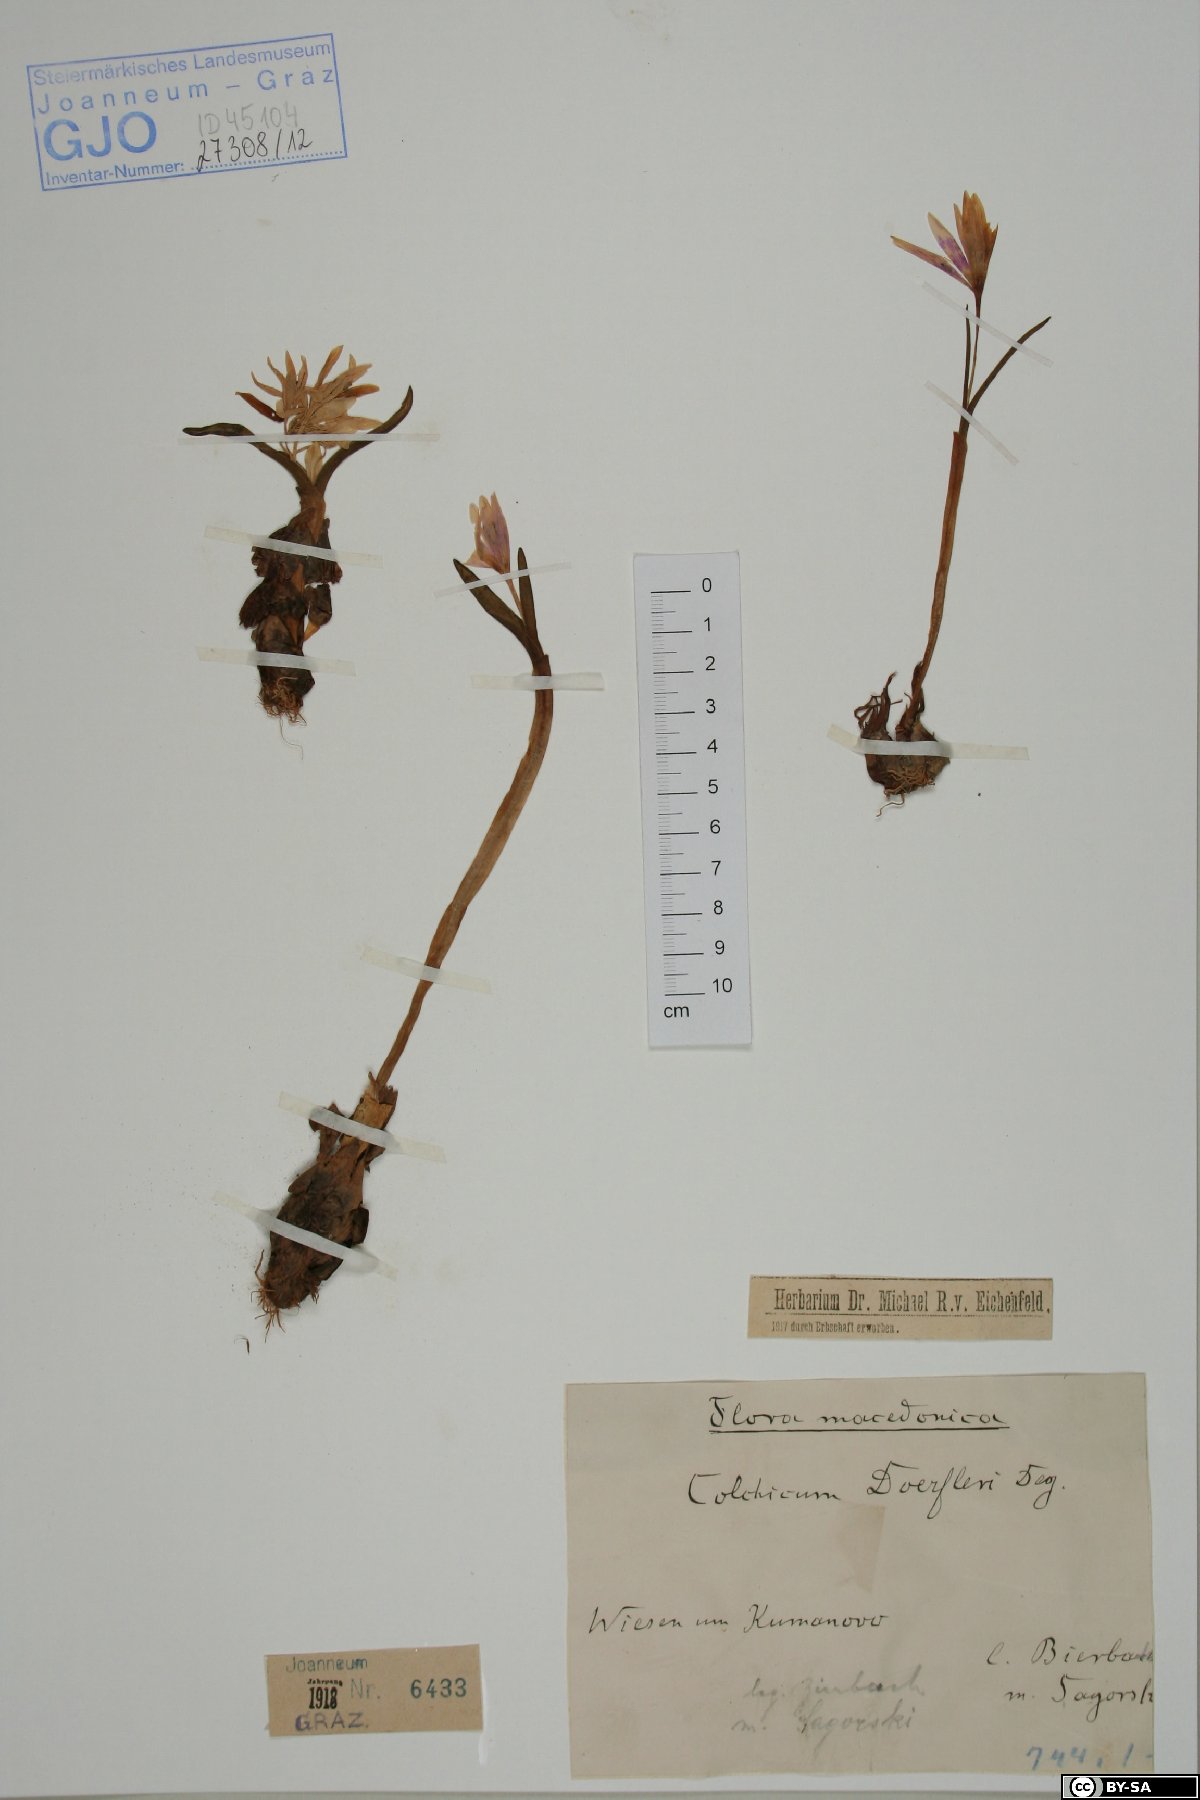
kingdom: Plantae
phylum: Tracheophyta
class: Liliopsida
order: Liliales
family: Colchicaceae
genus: Colchicum
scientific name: Colchicum doerfleri
